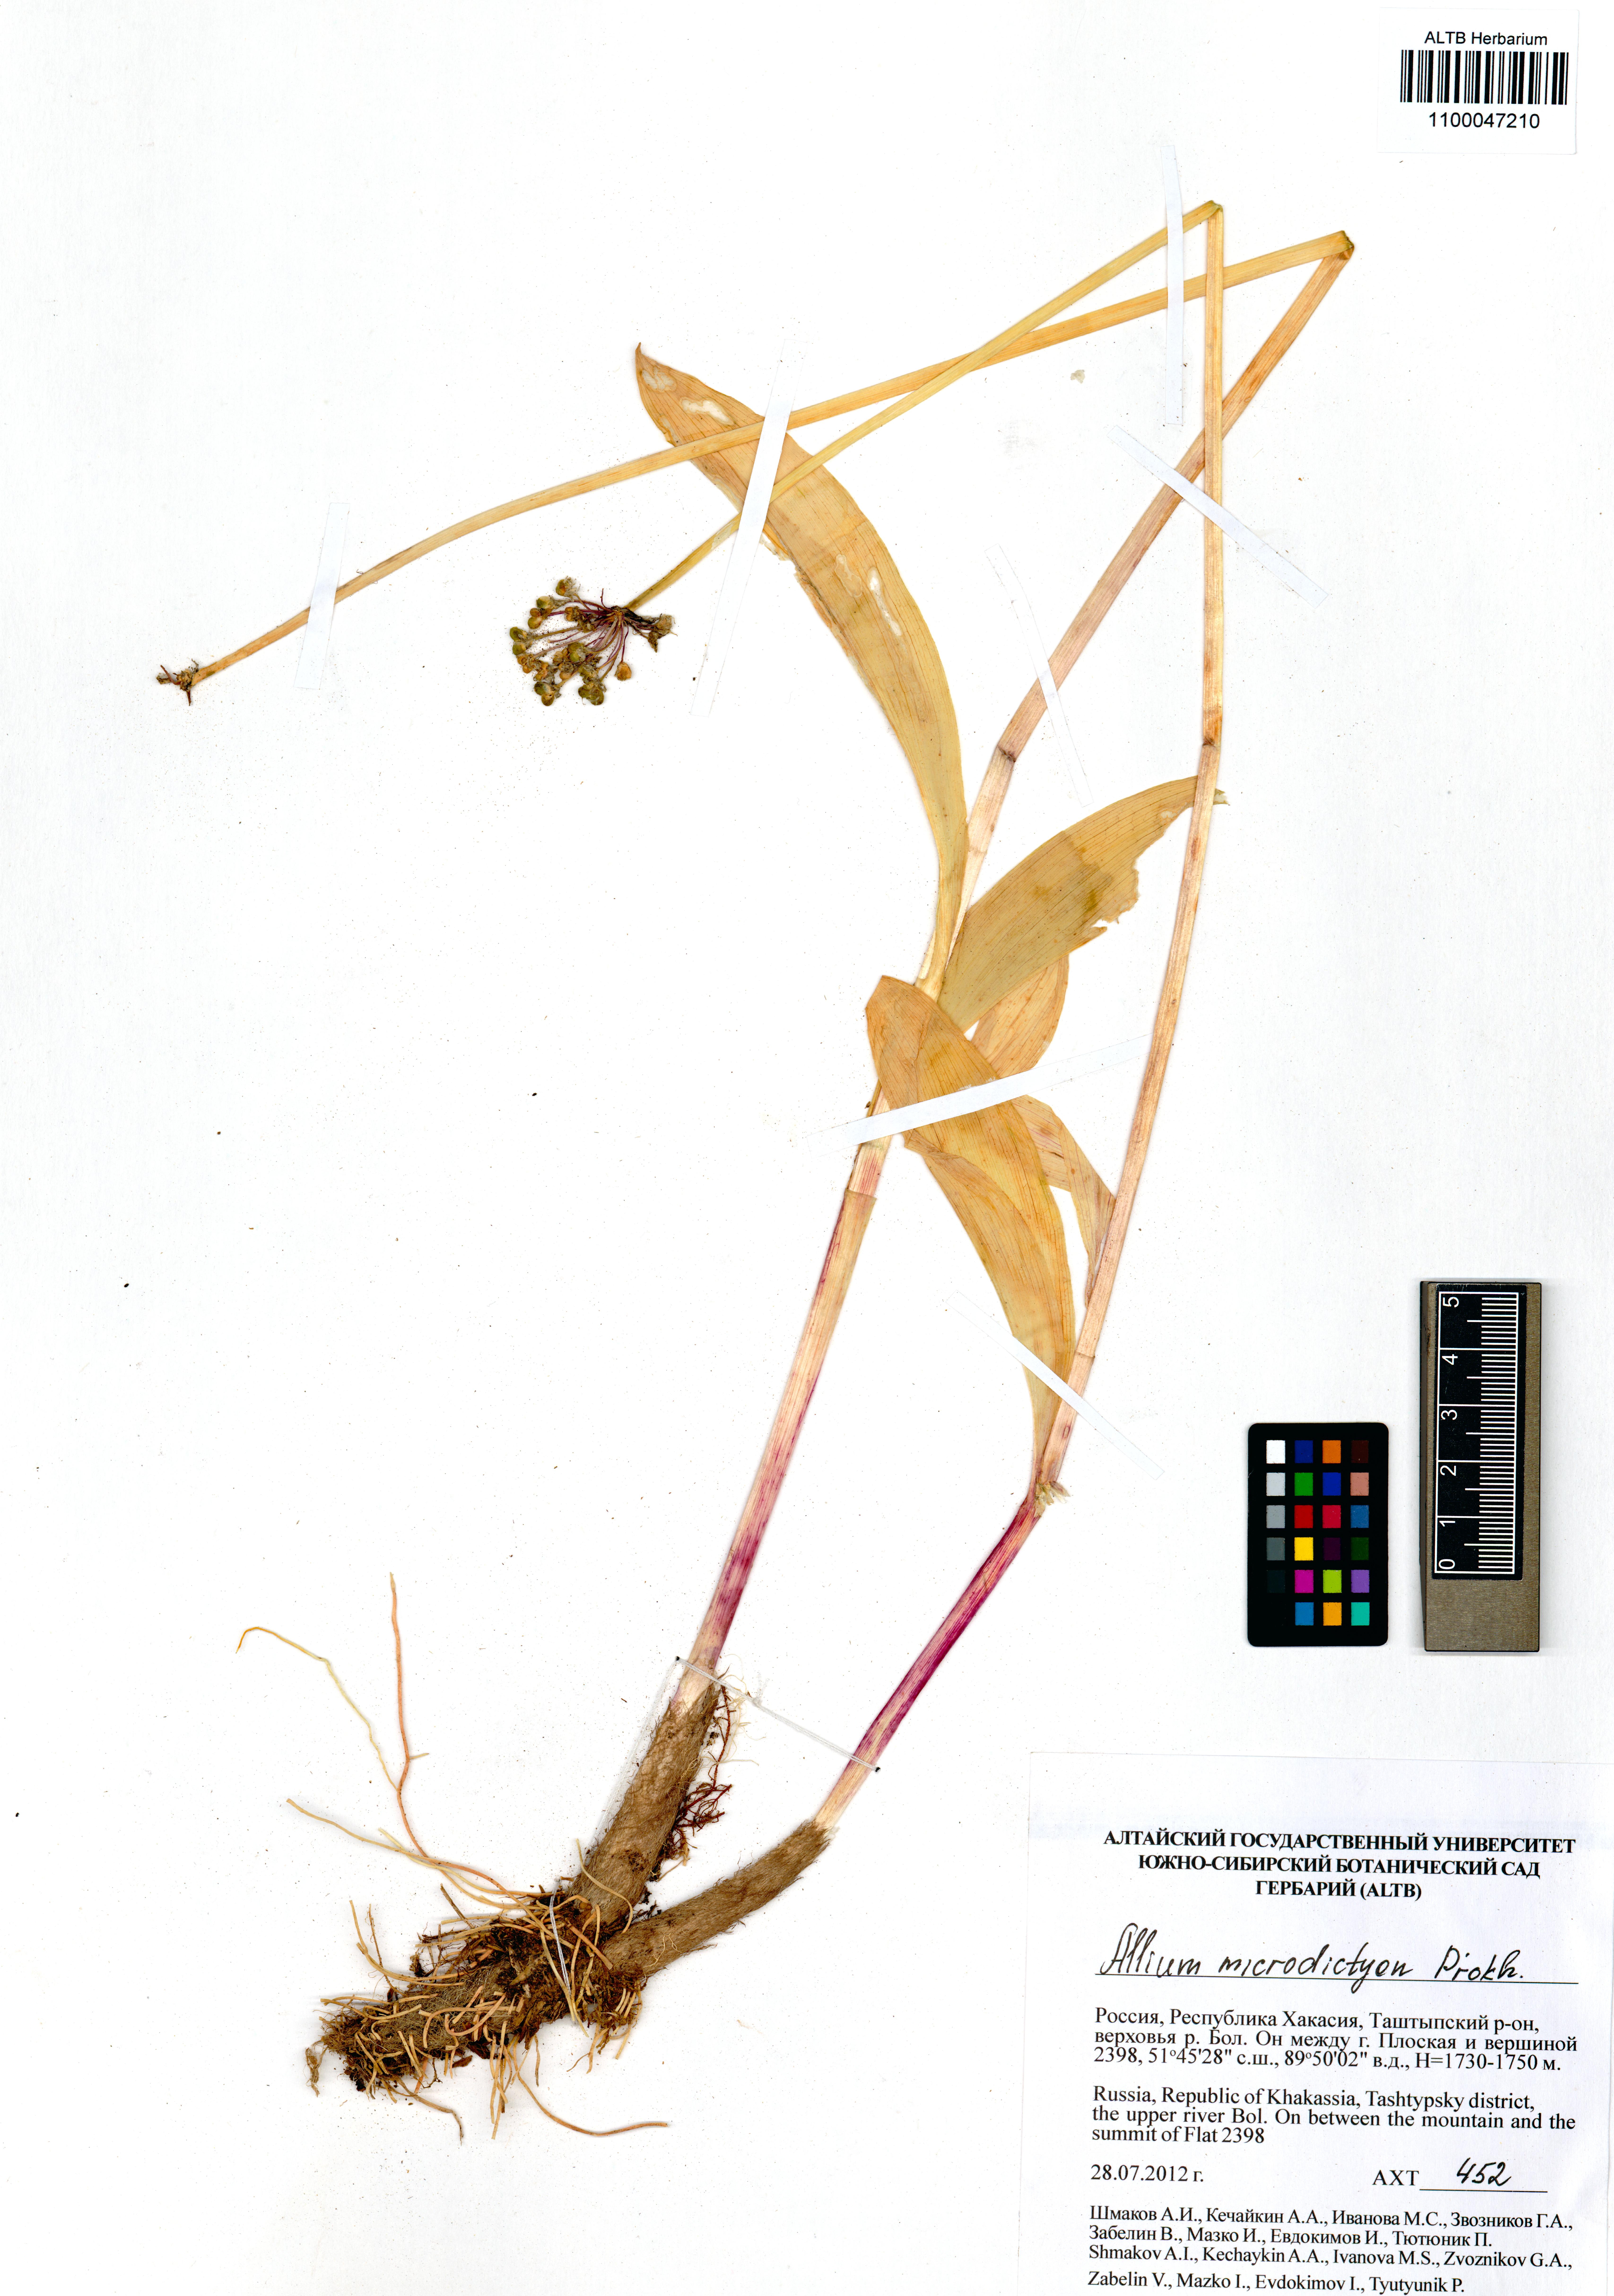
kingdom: Plantae
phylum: Tracheophyta
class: Liliopsida
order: Asparagales
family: Amaryllidaceae
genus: Allium
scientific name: Allium microdictyon
